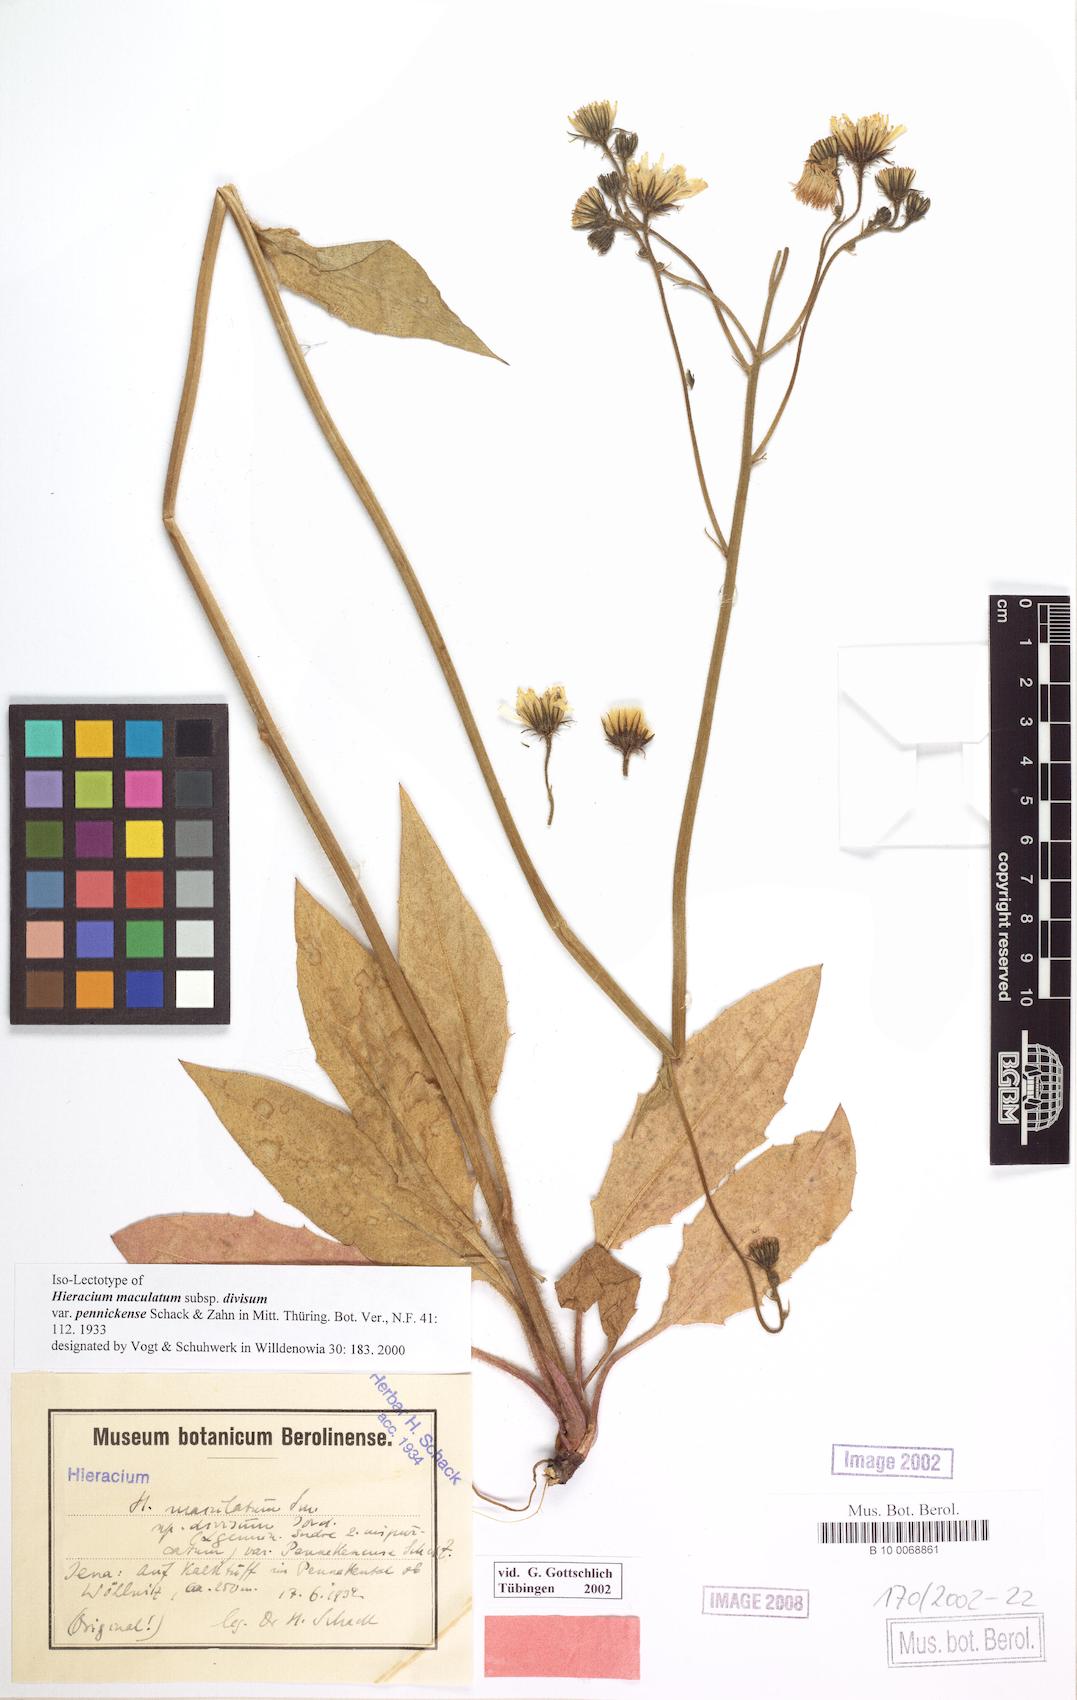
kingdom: Plantae
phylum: Tracheophyta
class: Magnoliopsida
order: Asterales
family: Asteraceae
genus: Hieracium
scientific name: Hieracium maculatum
